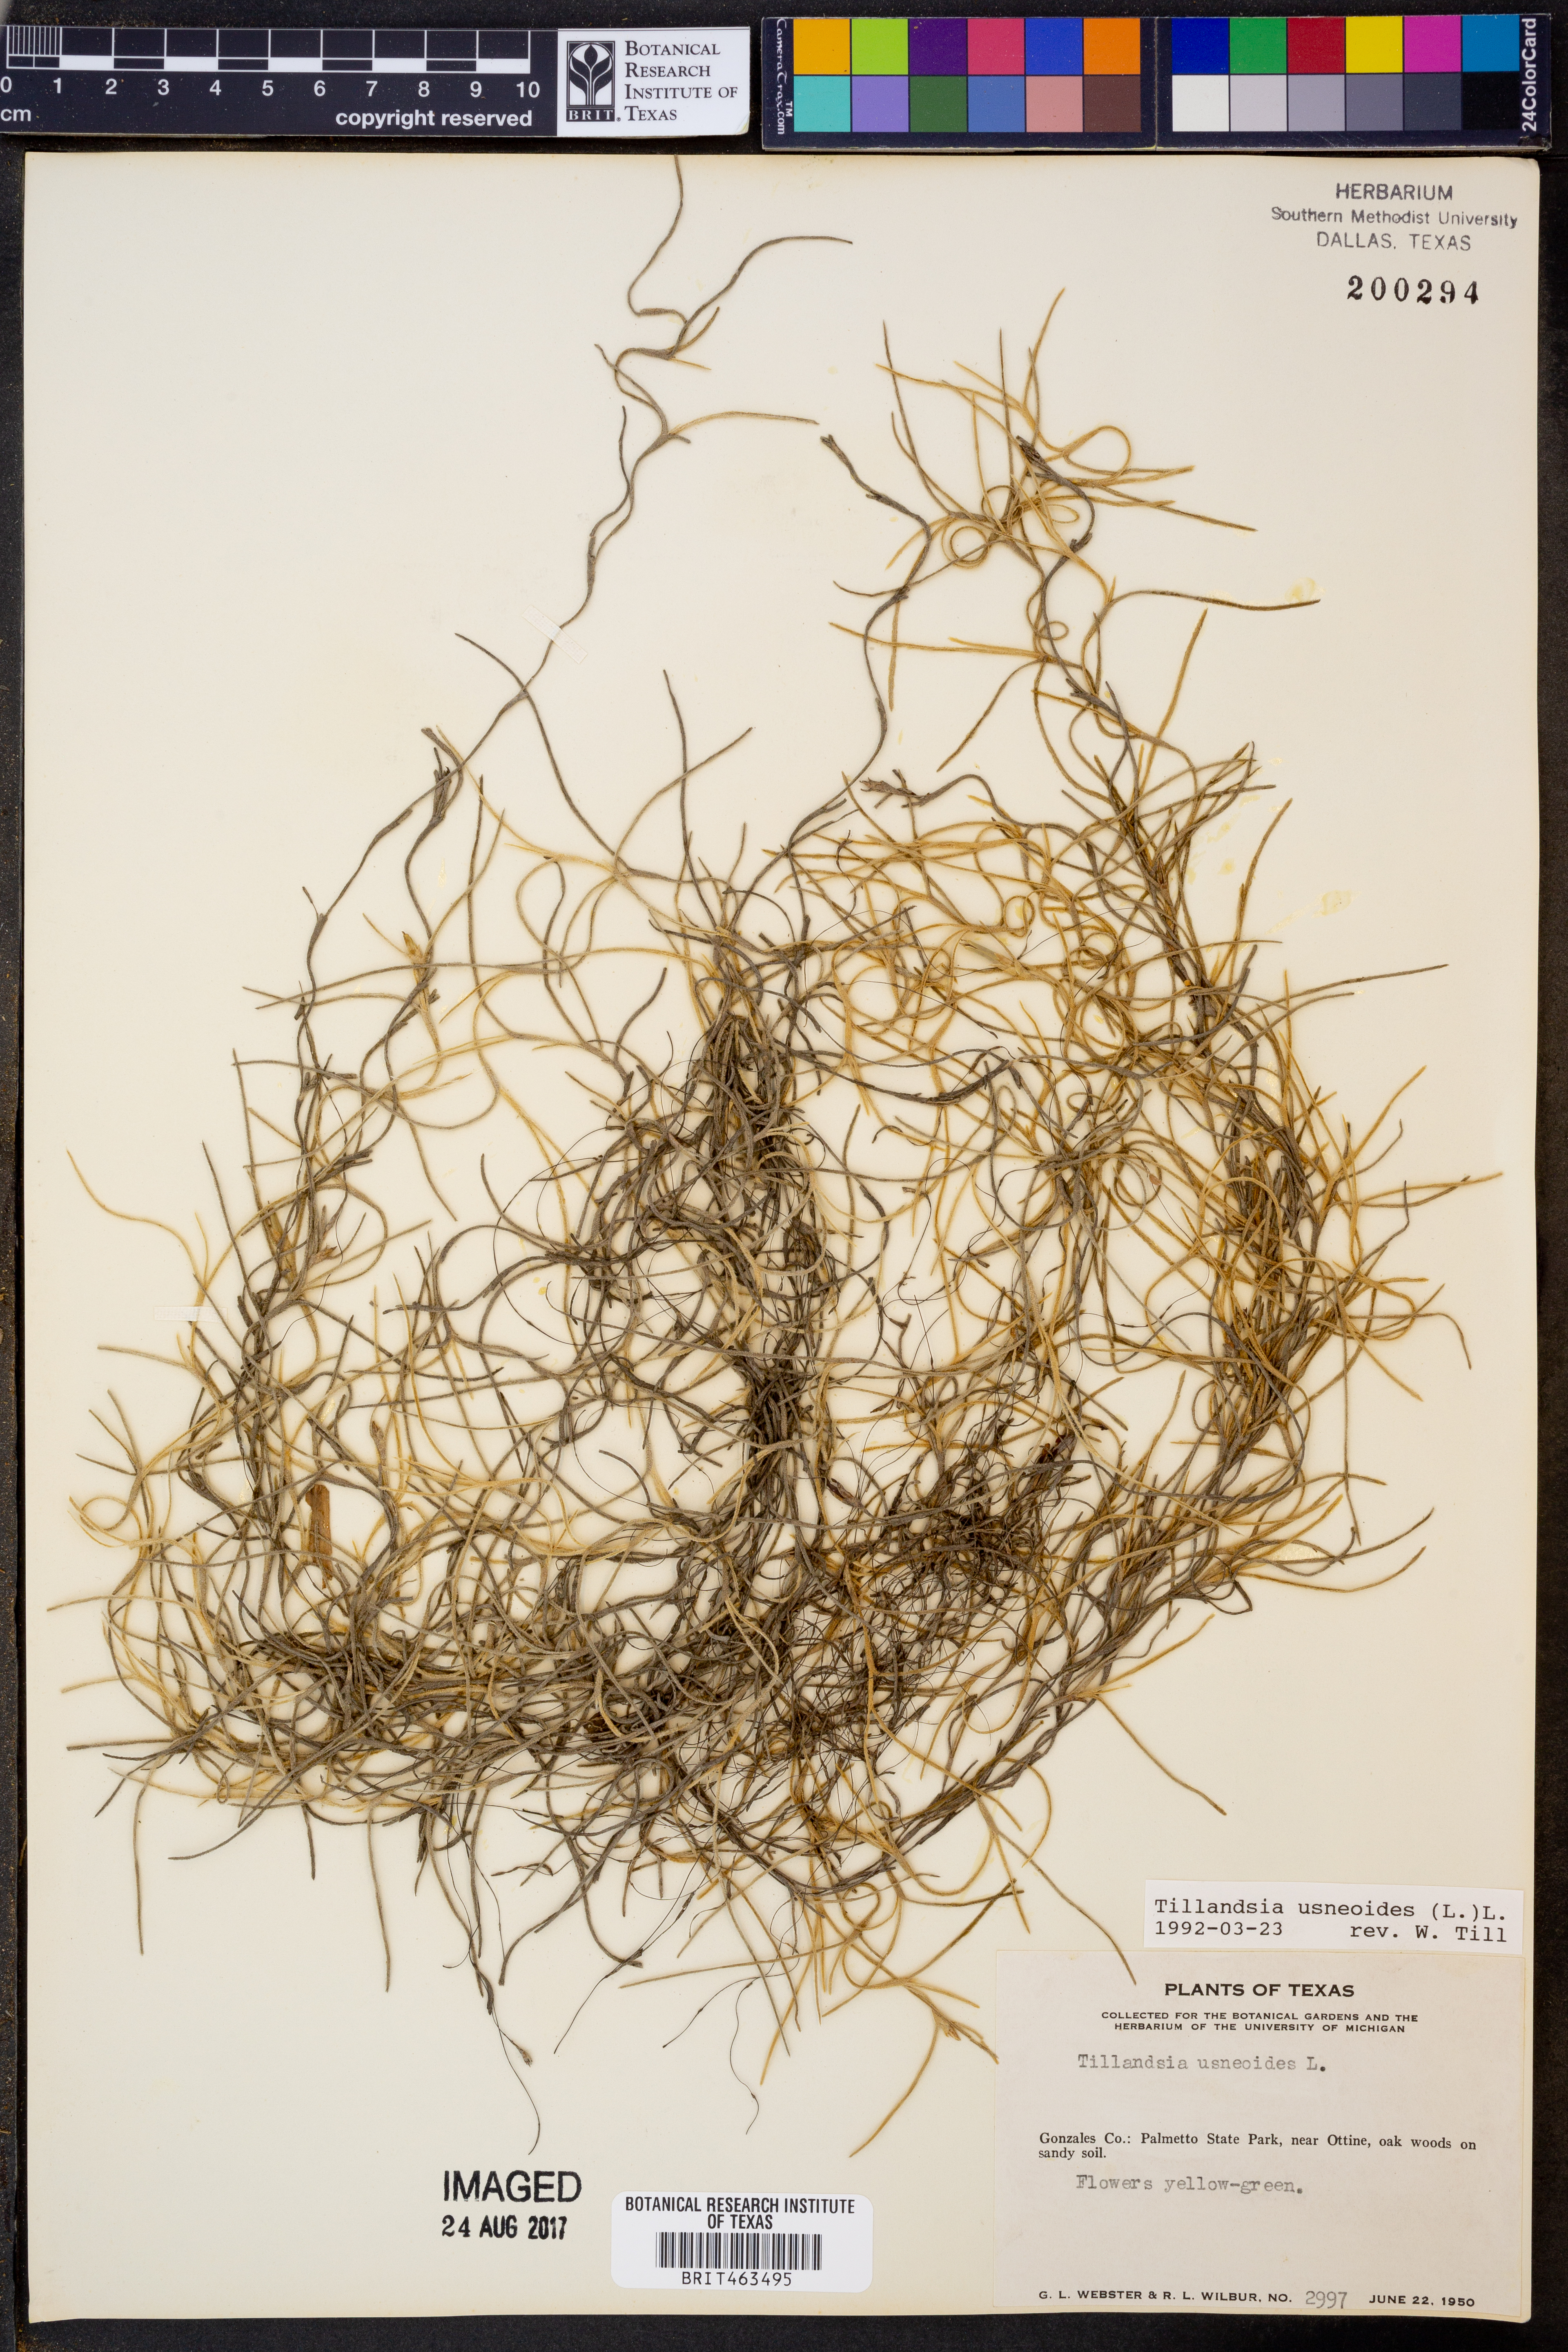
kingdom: Plantae
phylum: Tracheophyta
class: Liliopsida
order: Poales
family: Bromeliaceae
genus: Tillandsia
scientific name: Tillandsia usneoides
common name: Spanish moss
